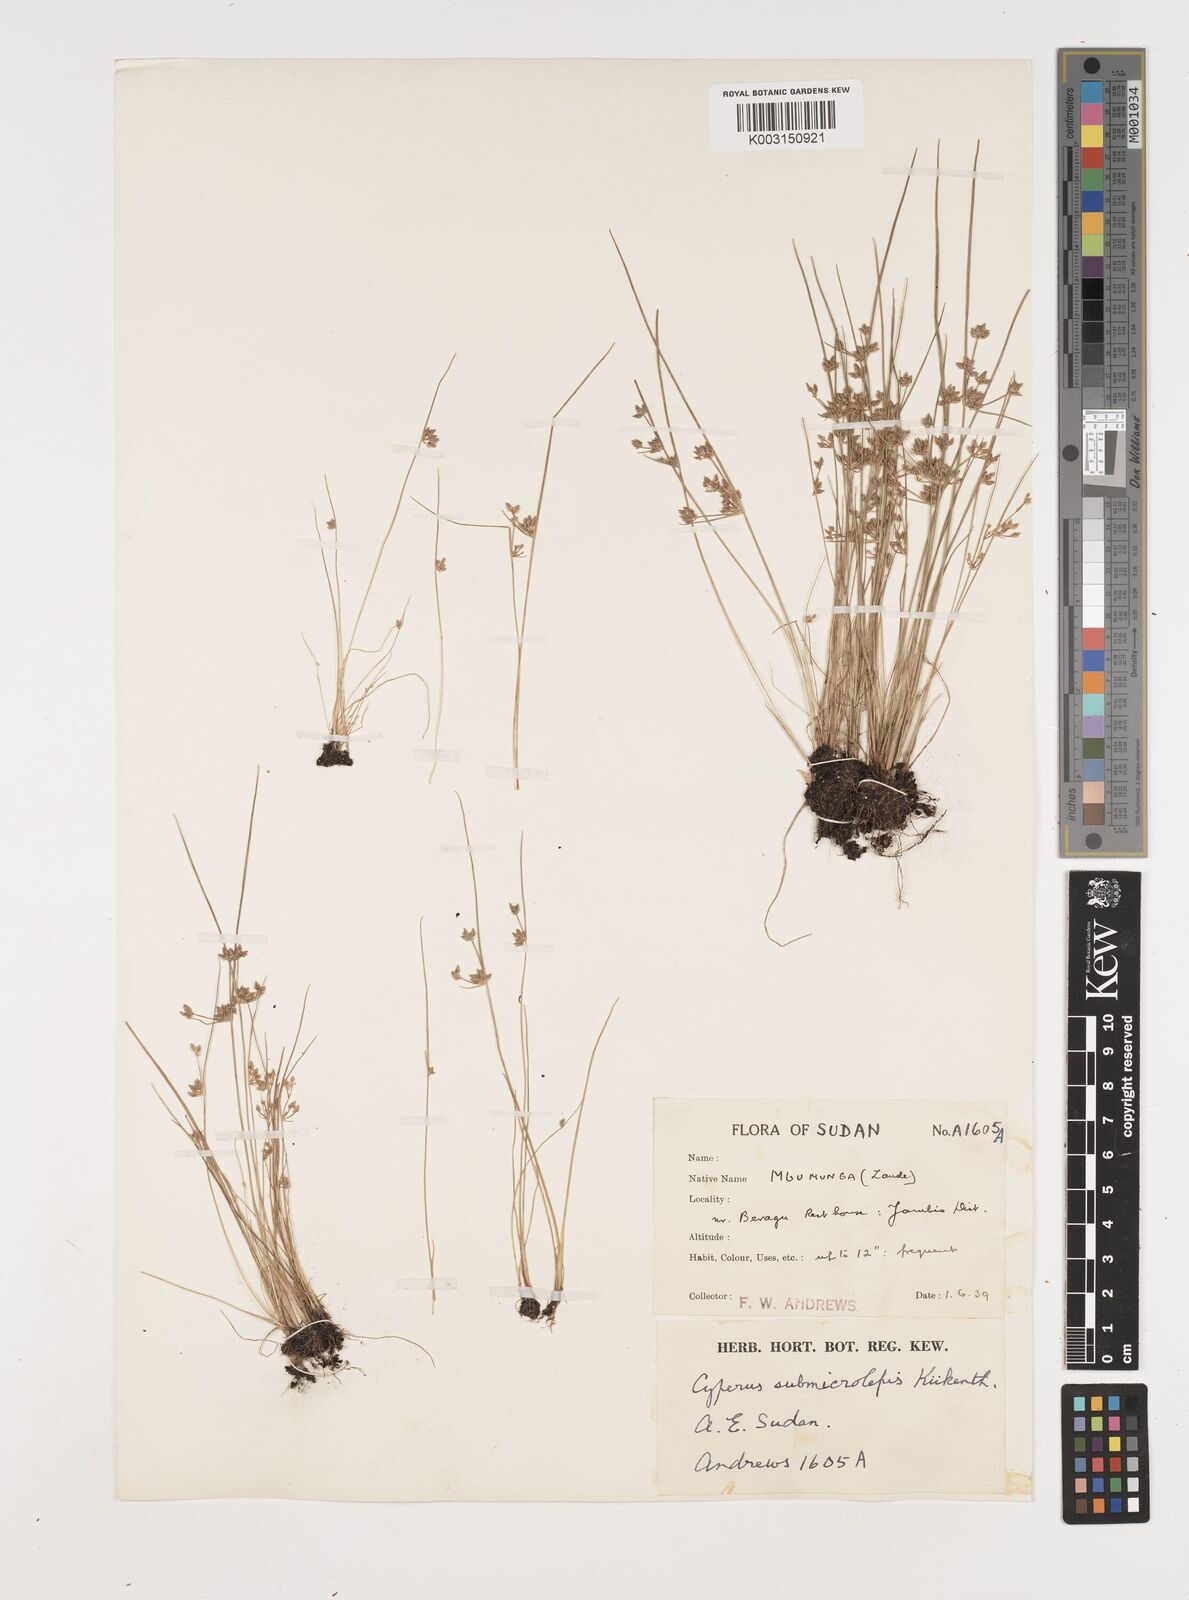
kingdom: Plantae
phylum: Tracheophyta
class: Liliopsida
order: Poales
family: Cyperaceae
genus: Cyperus
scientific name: Cyperus submicrolepis
